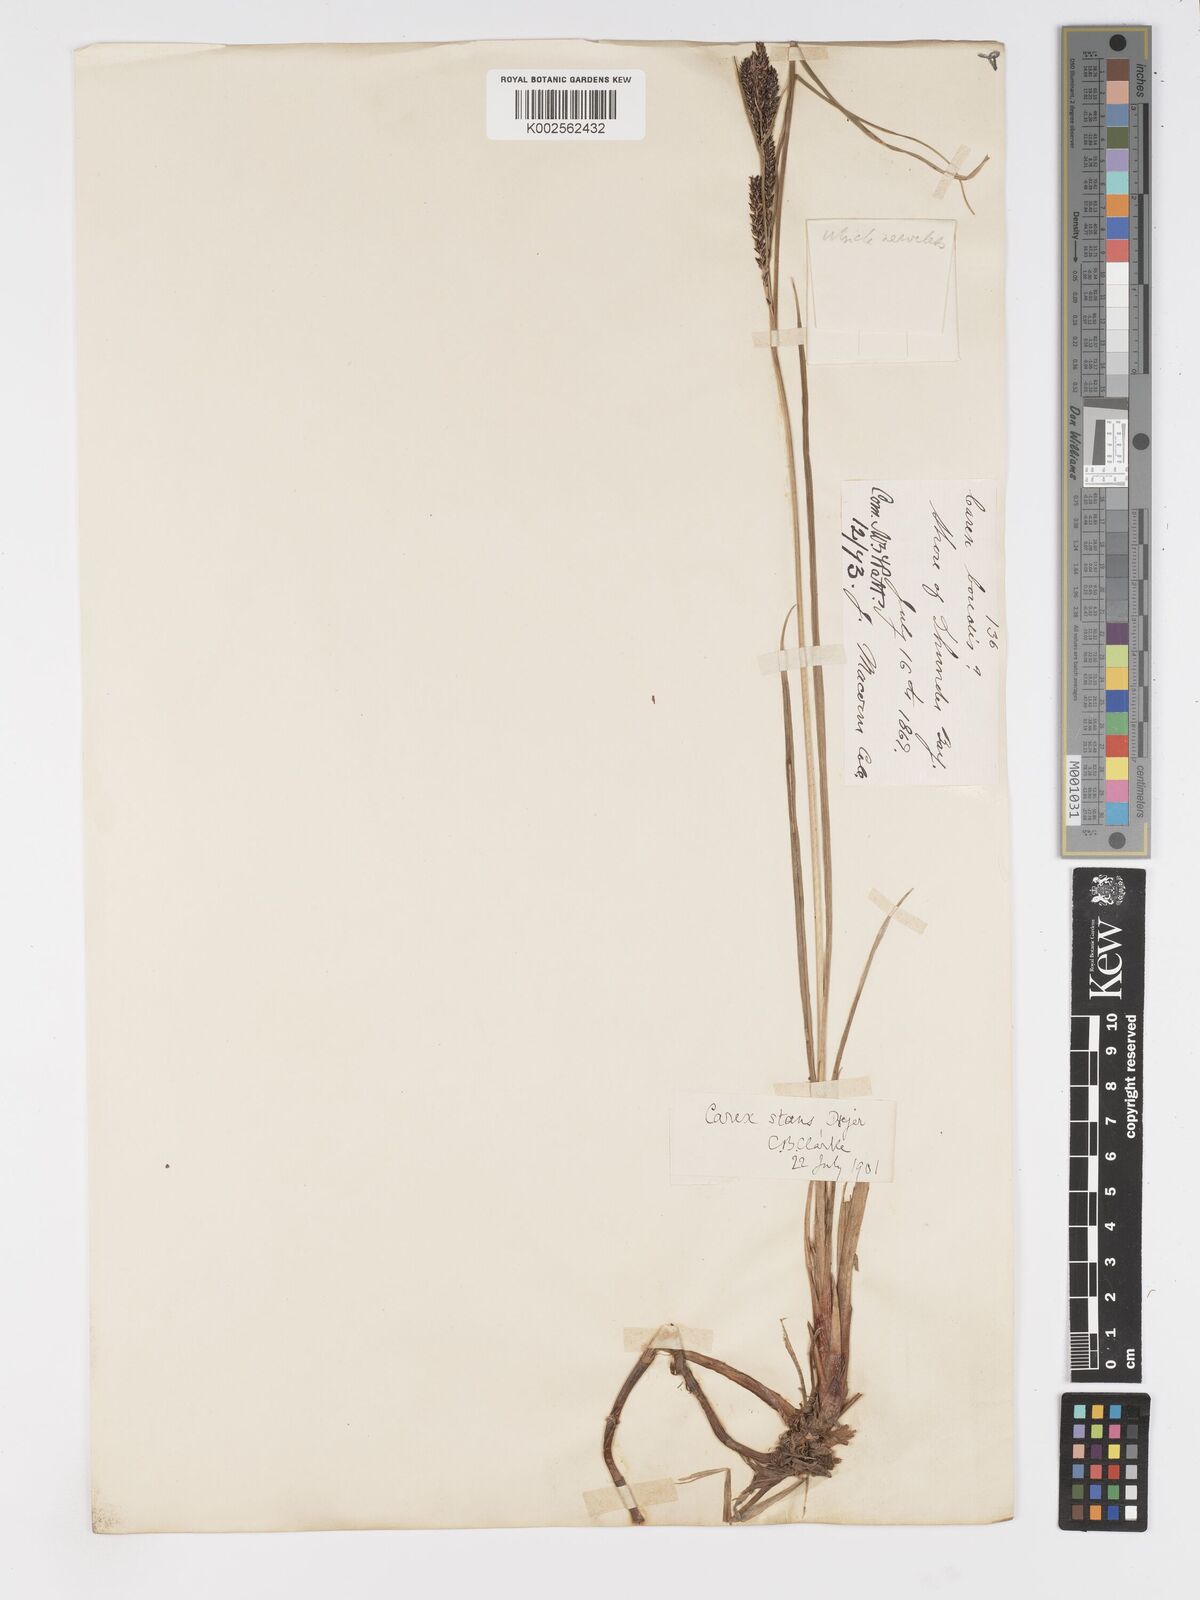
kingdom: Plantae
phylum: Tracheophyta
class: Liliopsida
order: Poales
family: Cyperaceae
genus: Carex
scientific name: Carex
